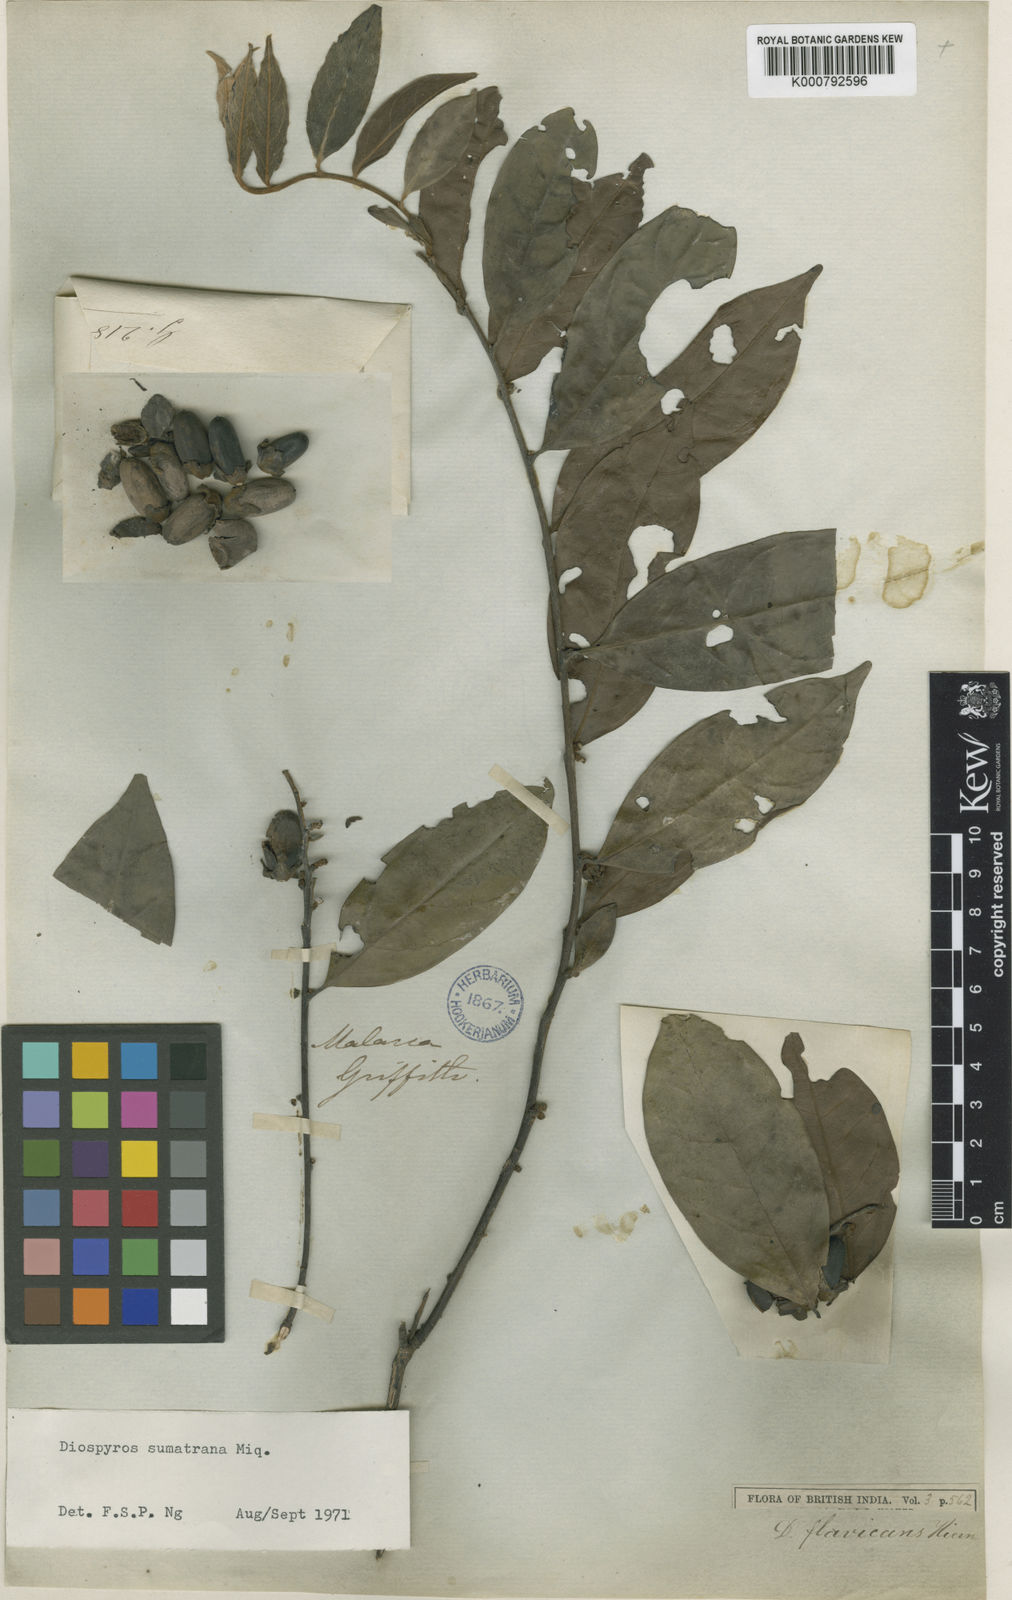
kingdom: Plantae
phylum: Tracheophyta
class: Magnoliopsida
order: Ericales
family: Ebenaceae
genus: Diospyros
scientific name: Diospyros sumatrana
